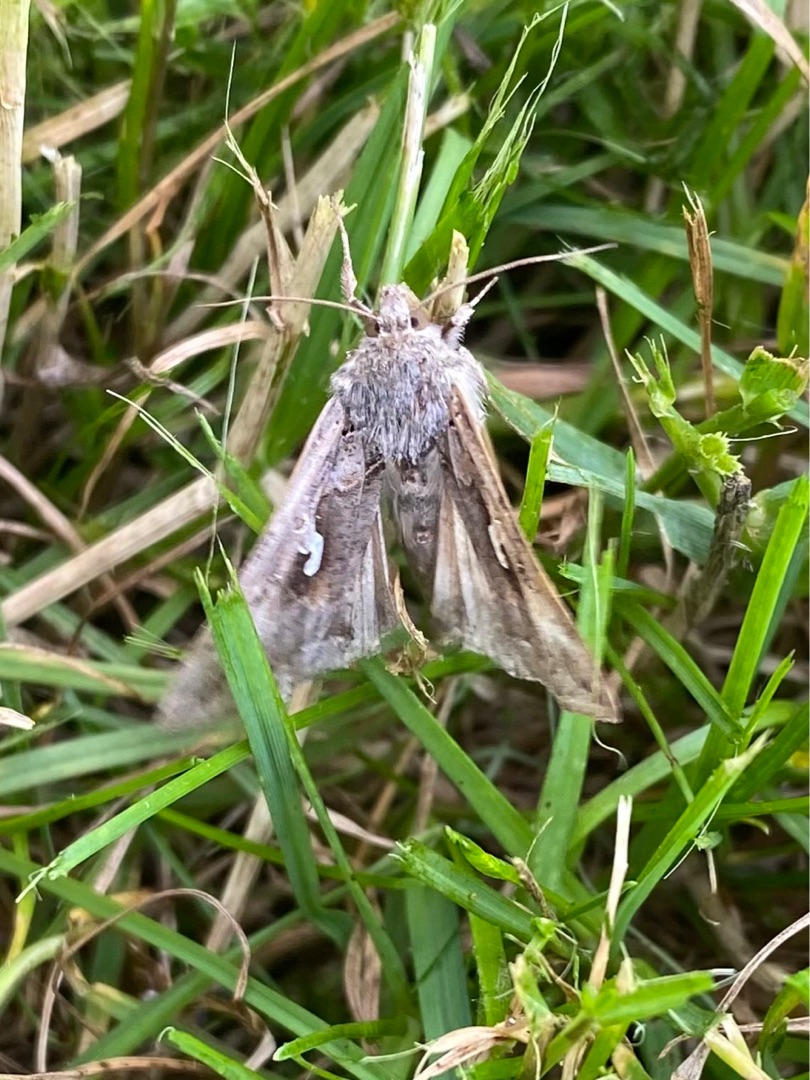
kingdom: Animalia
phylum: Arthropoda
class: Insecta
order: Lepidoptera
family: Noctuidae
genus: Autographa
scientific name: Autographa gamma
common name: Gammaugle
